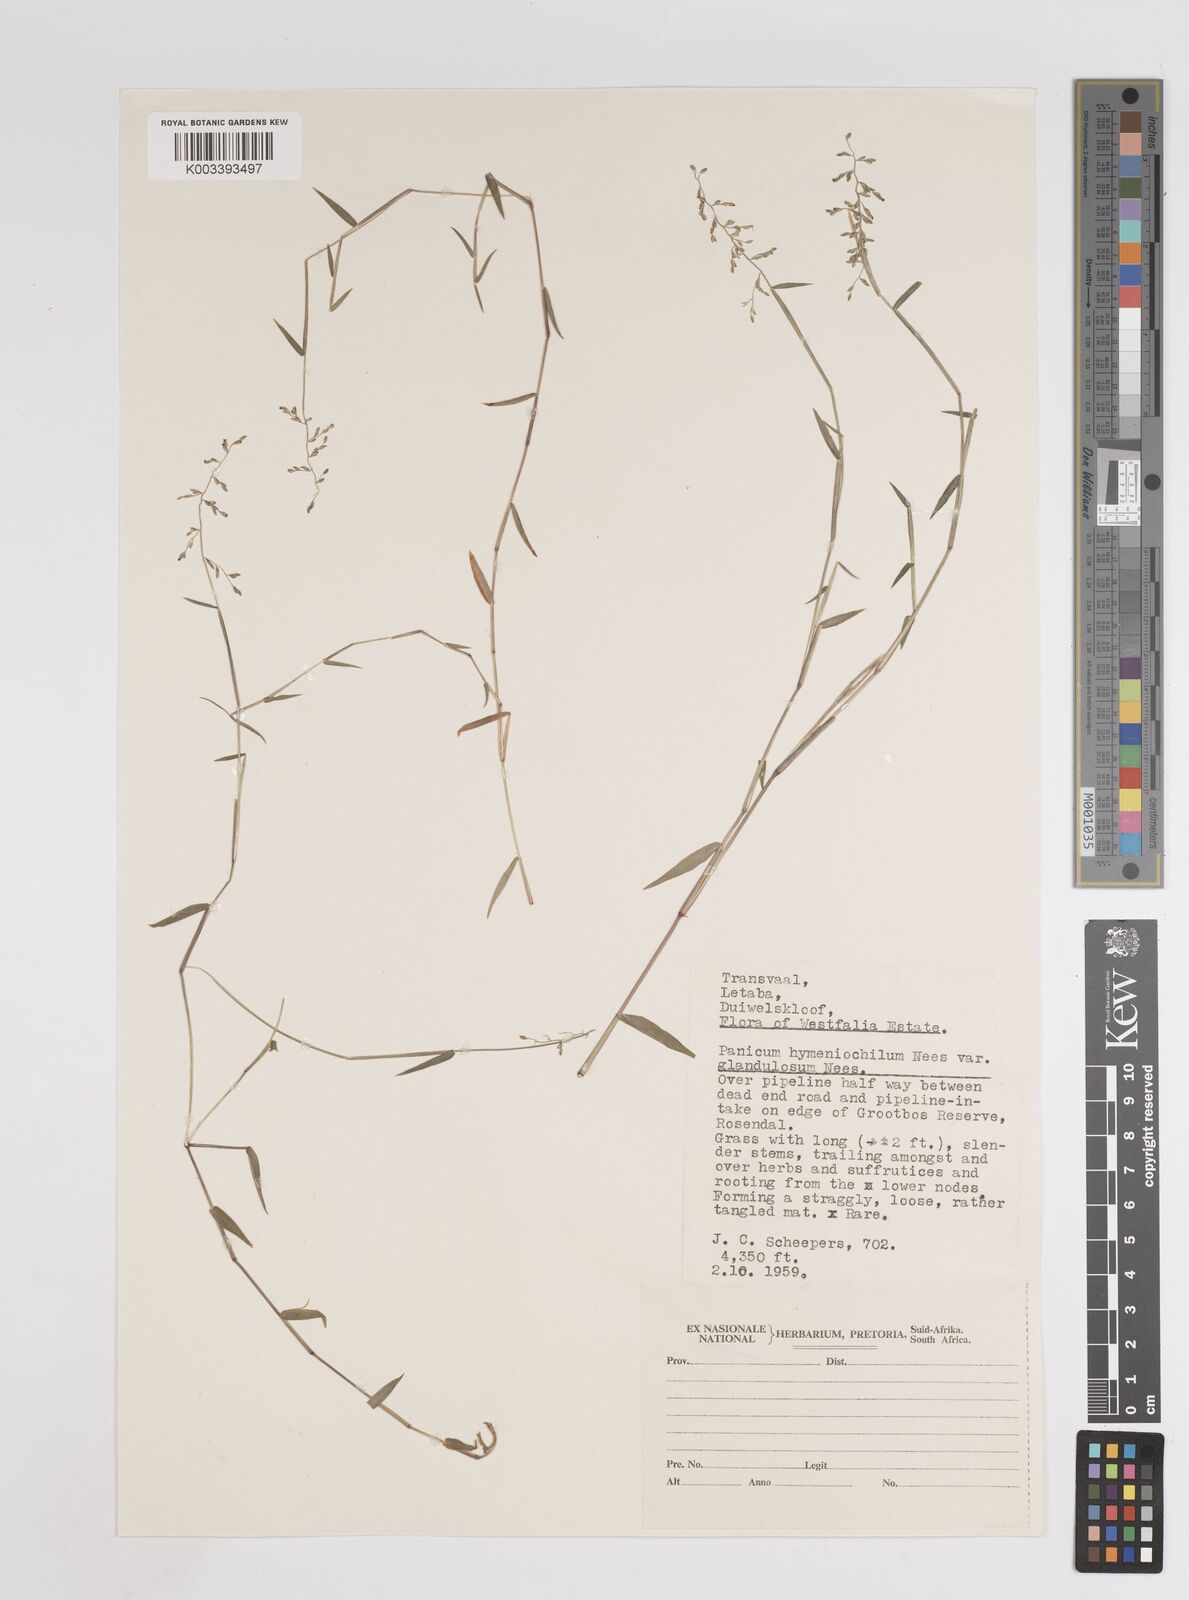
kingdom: Plantae
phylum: Tracheophyta
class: Liliopsida
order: Poales
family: Poaceae
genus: Adenochloa
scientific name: Adenochloa hymeniochila
